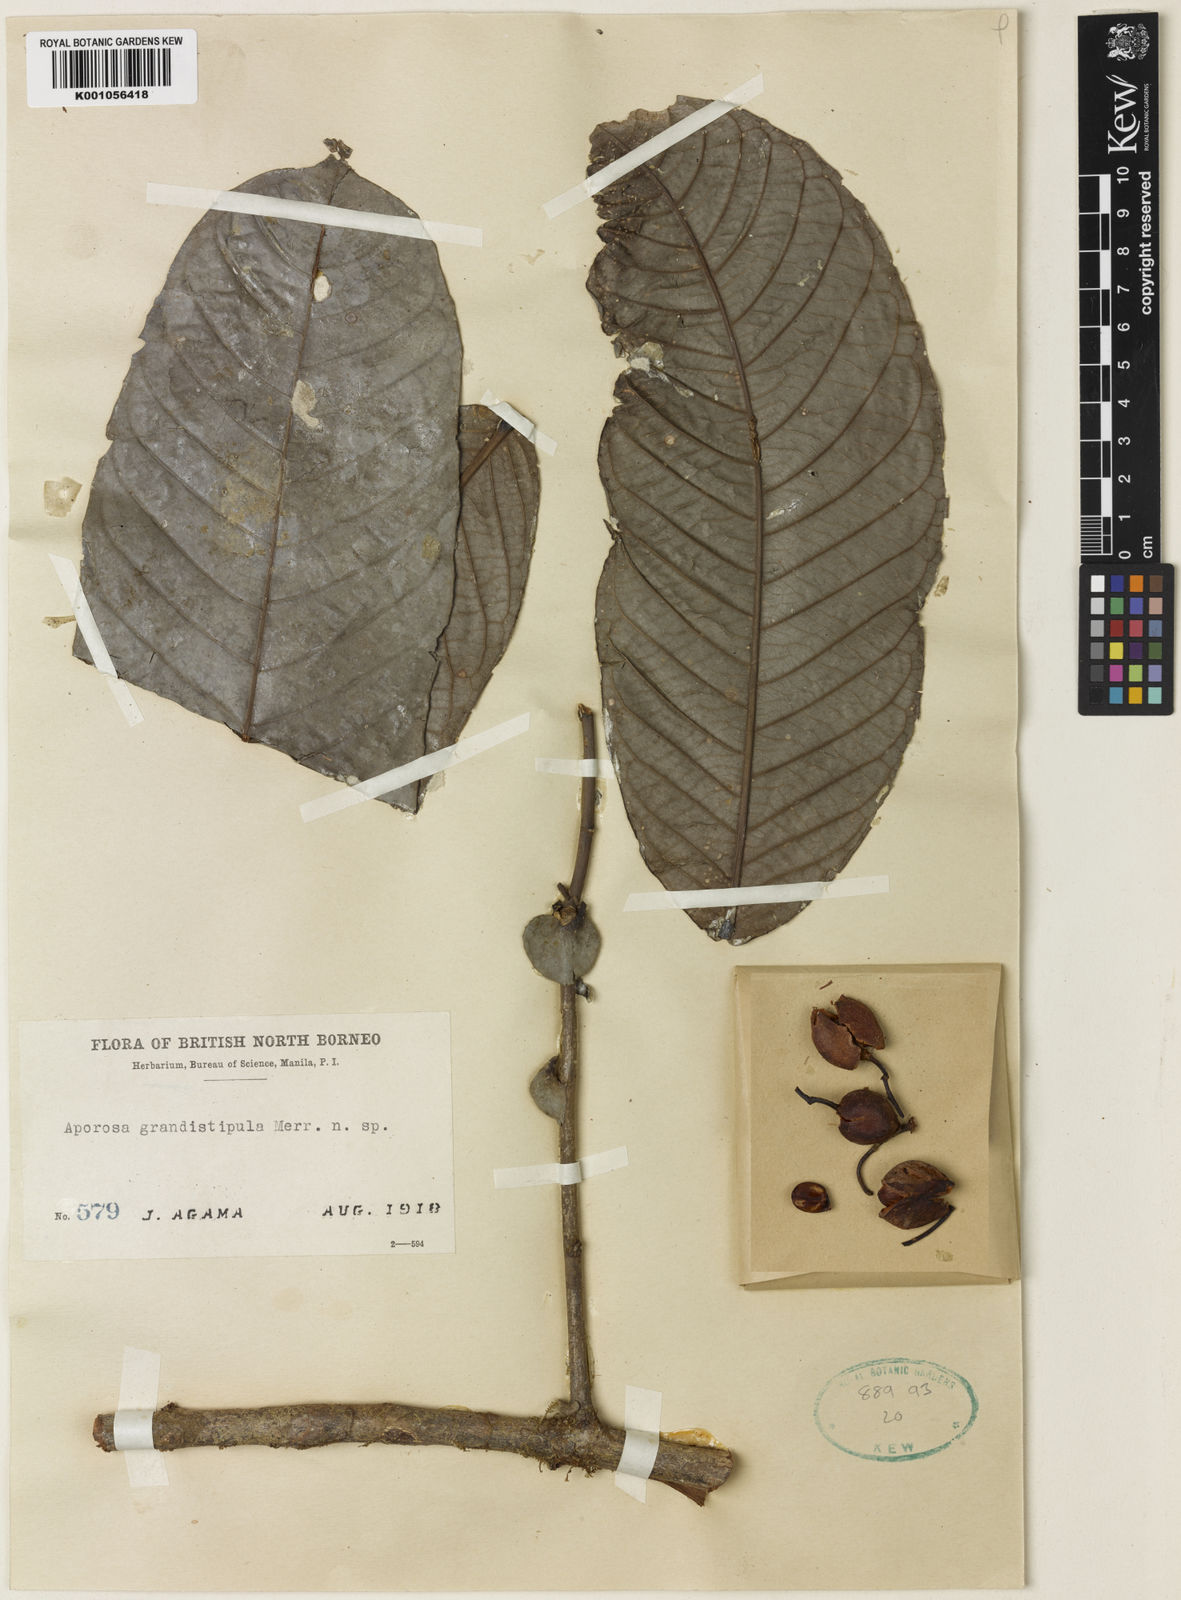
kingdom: Plantae
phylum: Tracheophyta
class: Magnoliopsida
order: Malpighiales
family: Phyllanthaceae
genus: Aporosa
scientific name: Aporosa grandistipula
